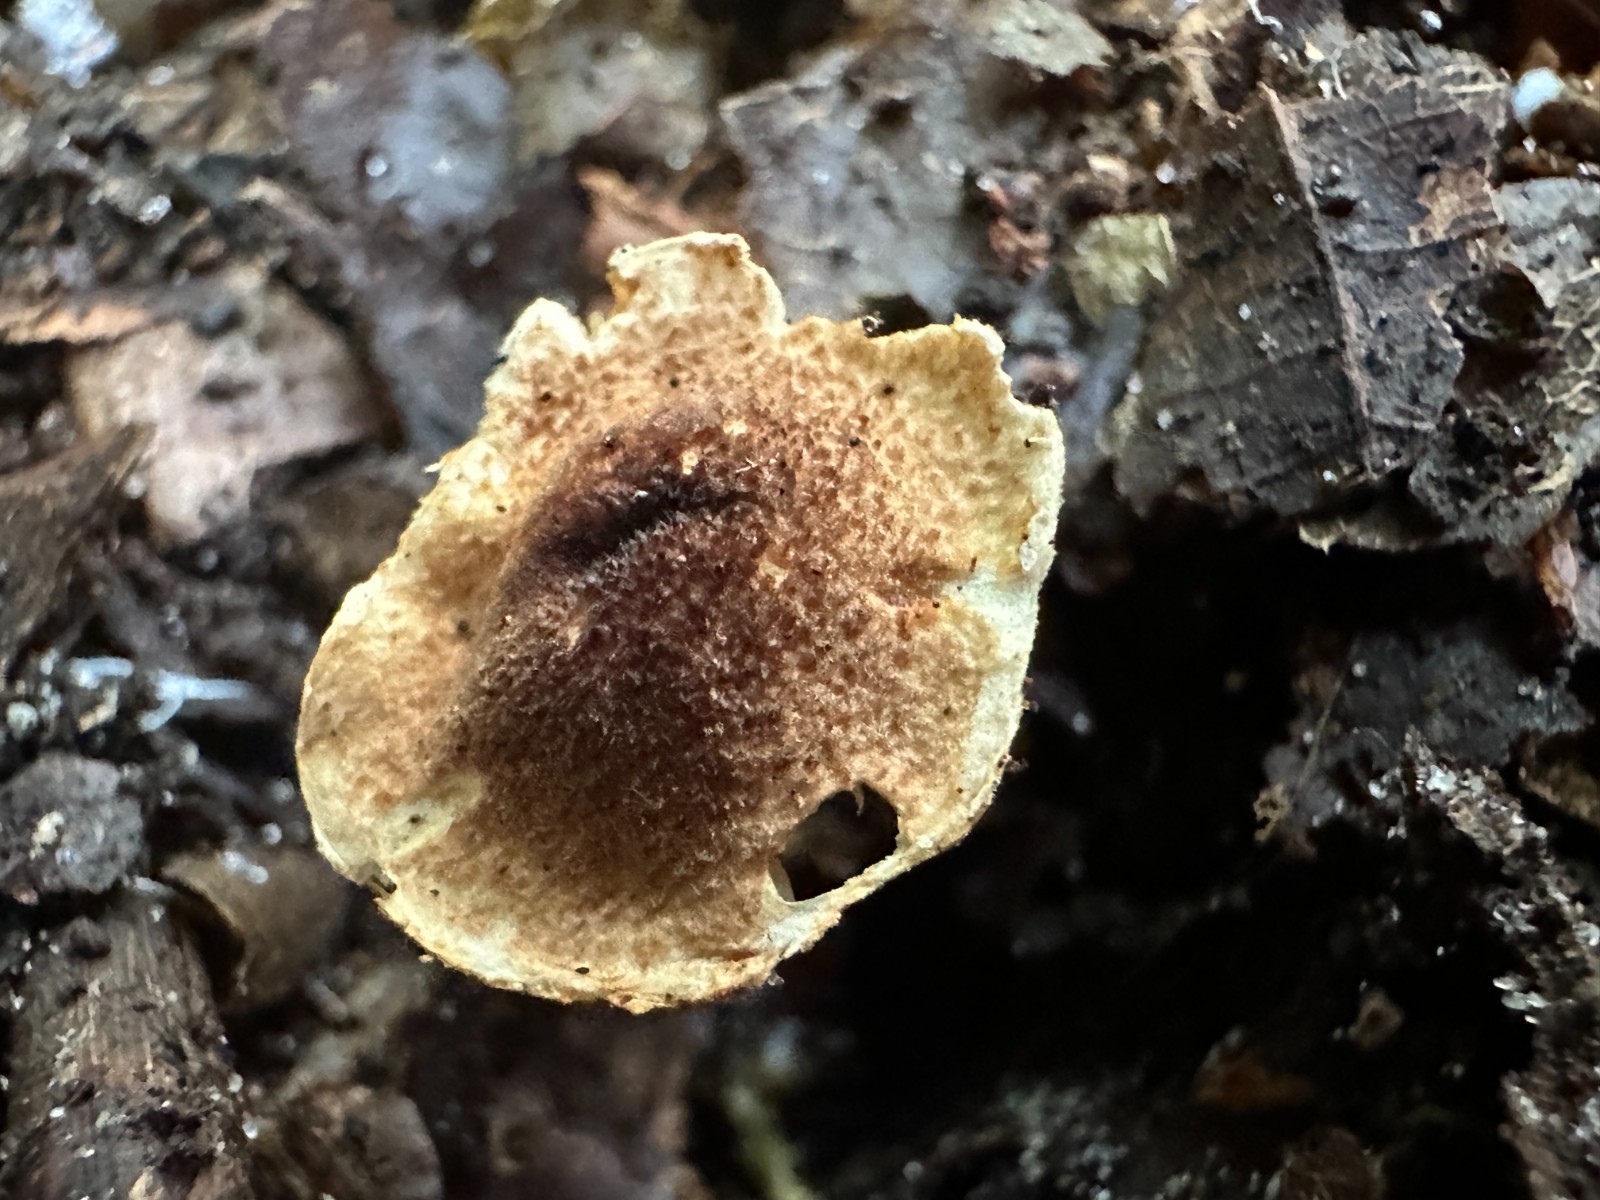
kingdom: Fungi
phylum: Basidiomycota
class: Agaricomycetes
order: Agaricales
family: Agaricaceae
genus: Lepiota
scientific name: Lepiota tomentella
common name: filtet parasolhat
